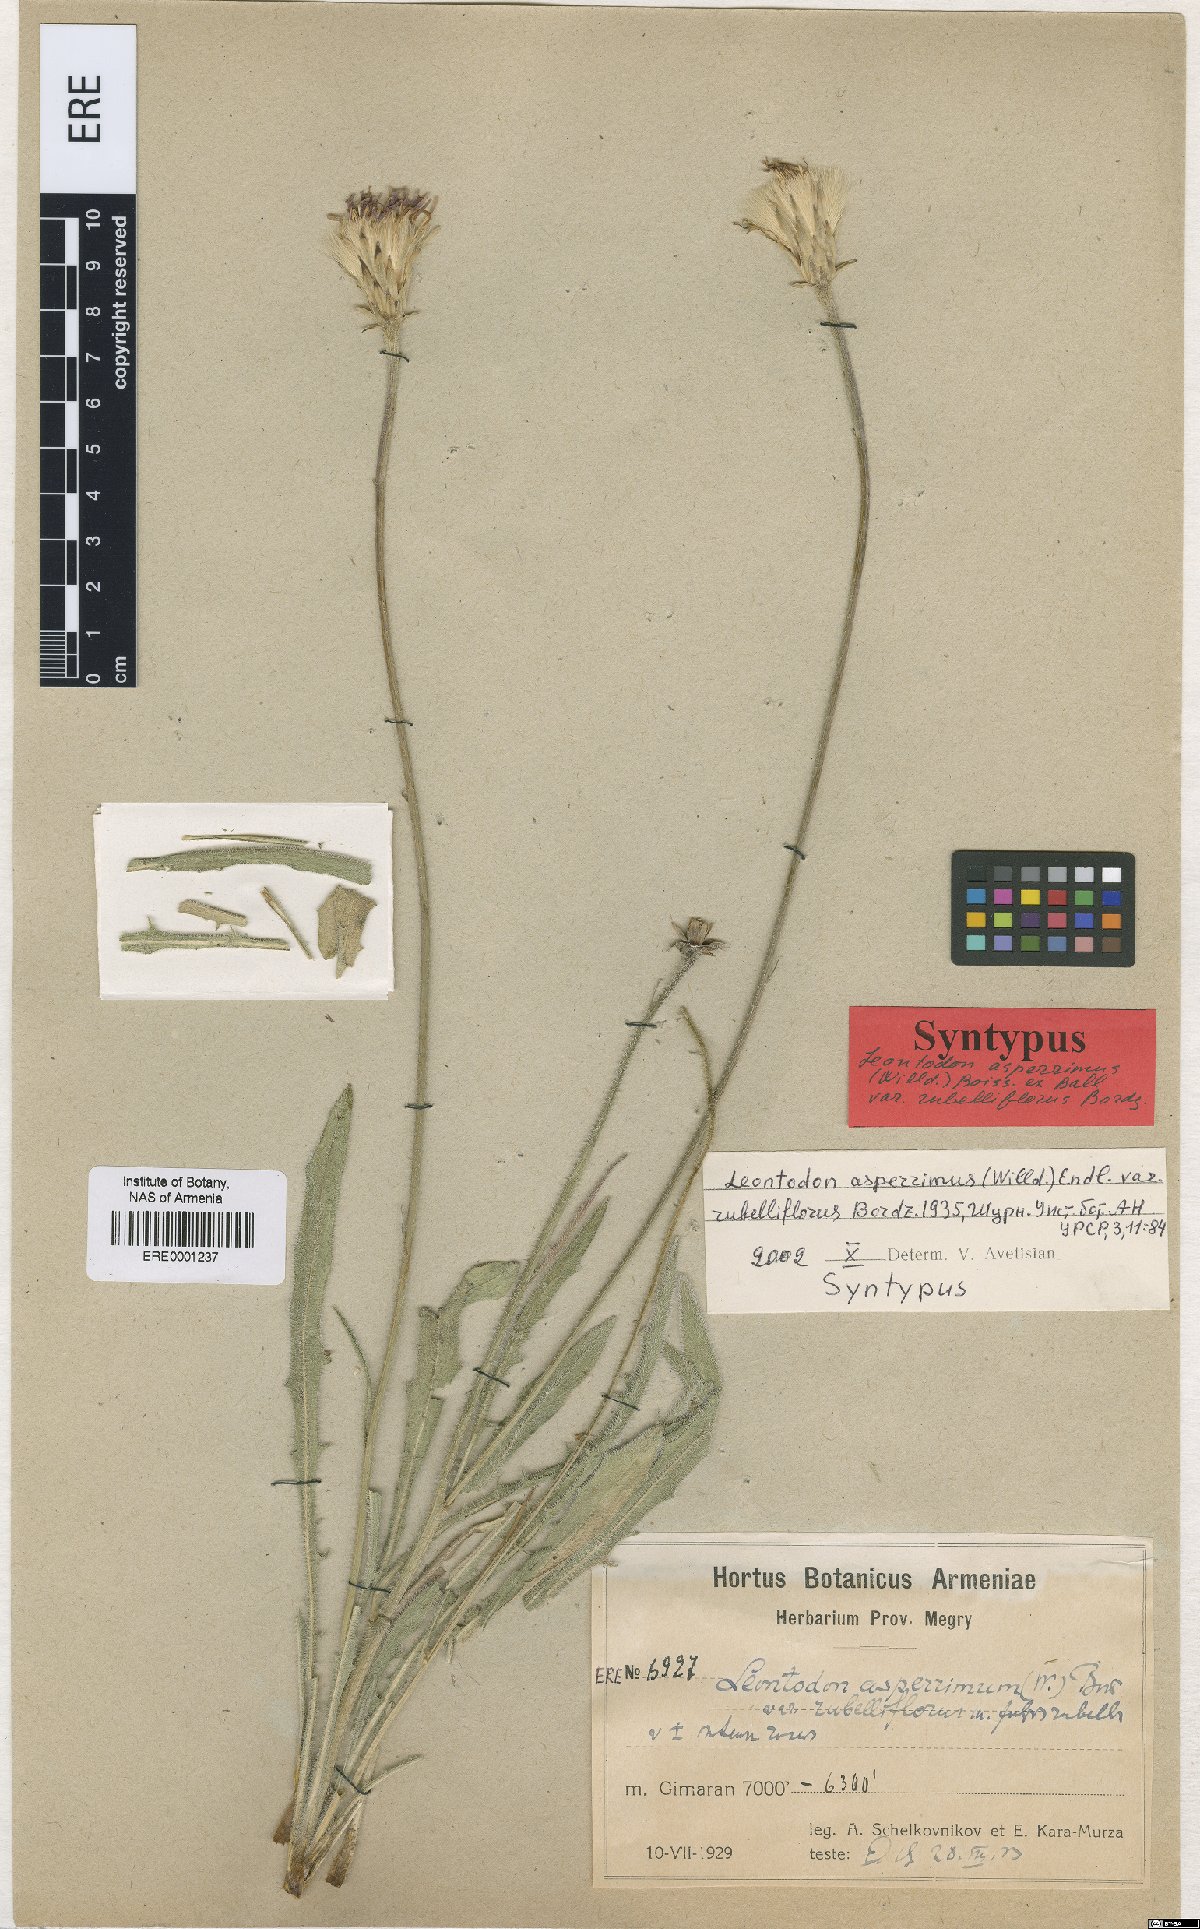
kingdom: Plantae
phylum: Tracheophyta
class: Magnoliopsida
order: Asterales
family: Asteraceae
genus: Leontodon
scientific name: Leontodon asperrimus
